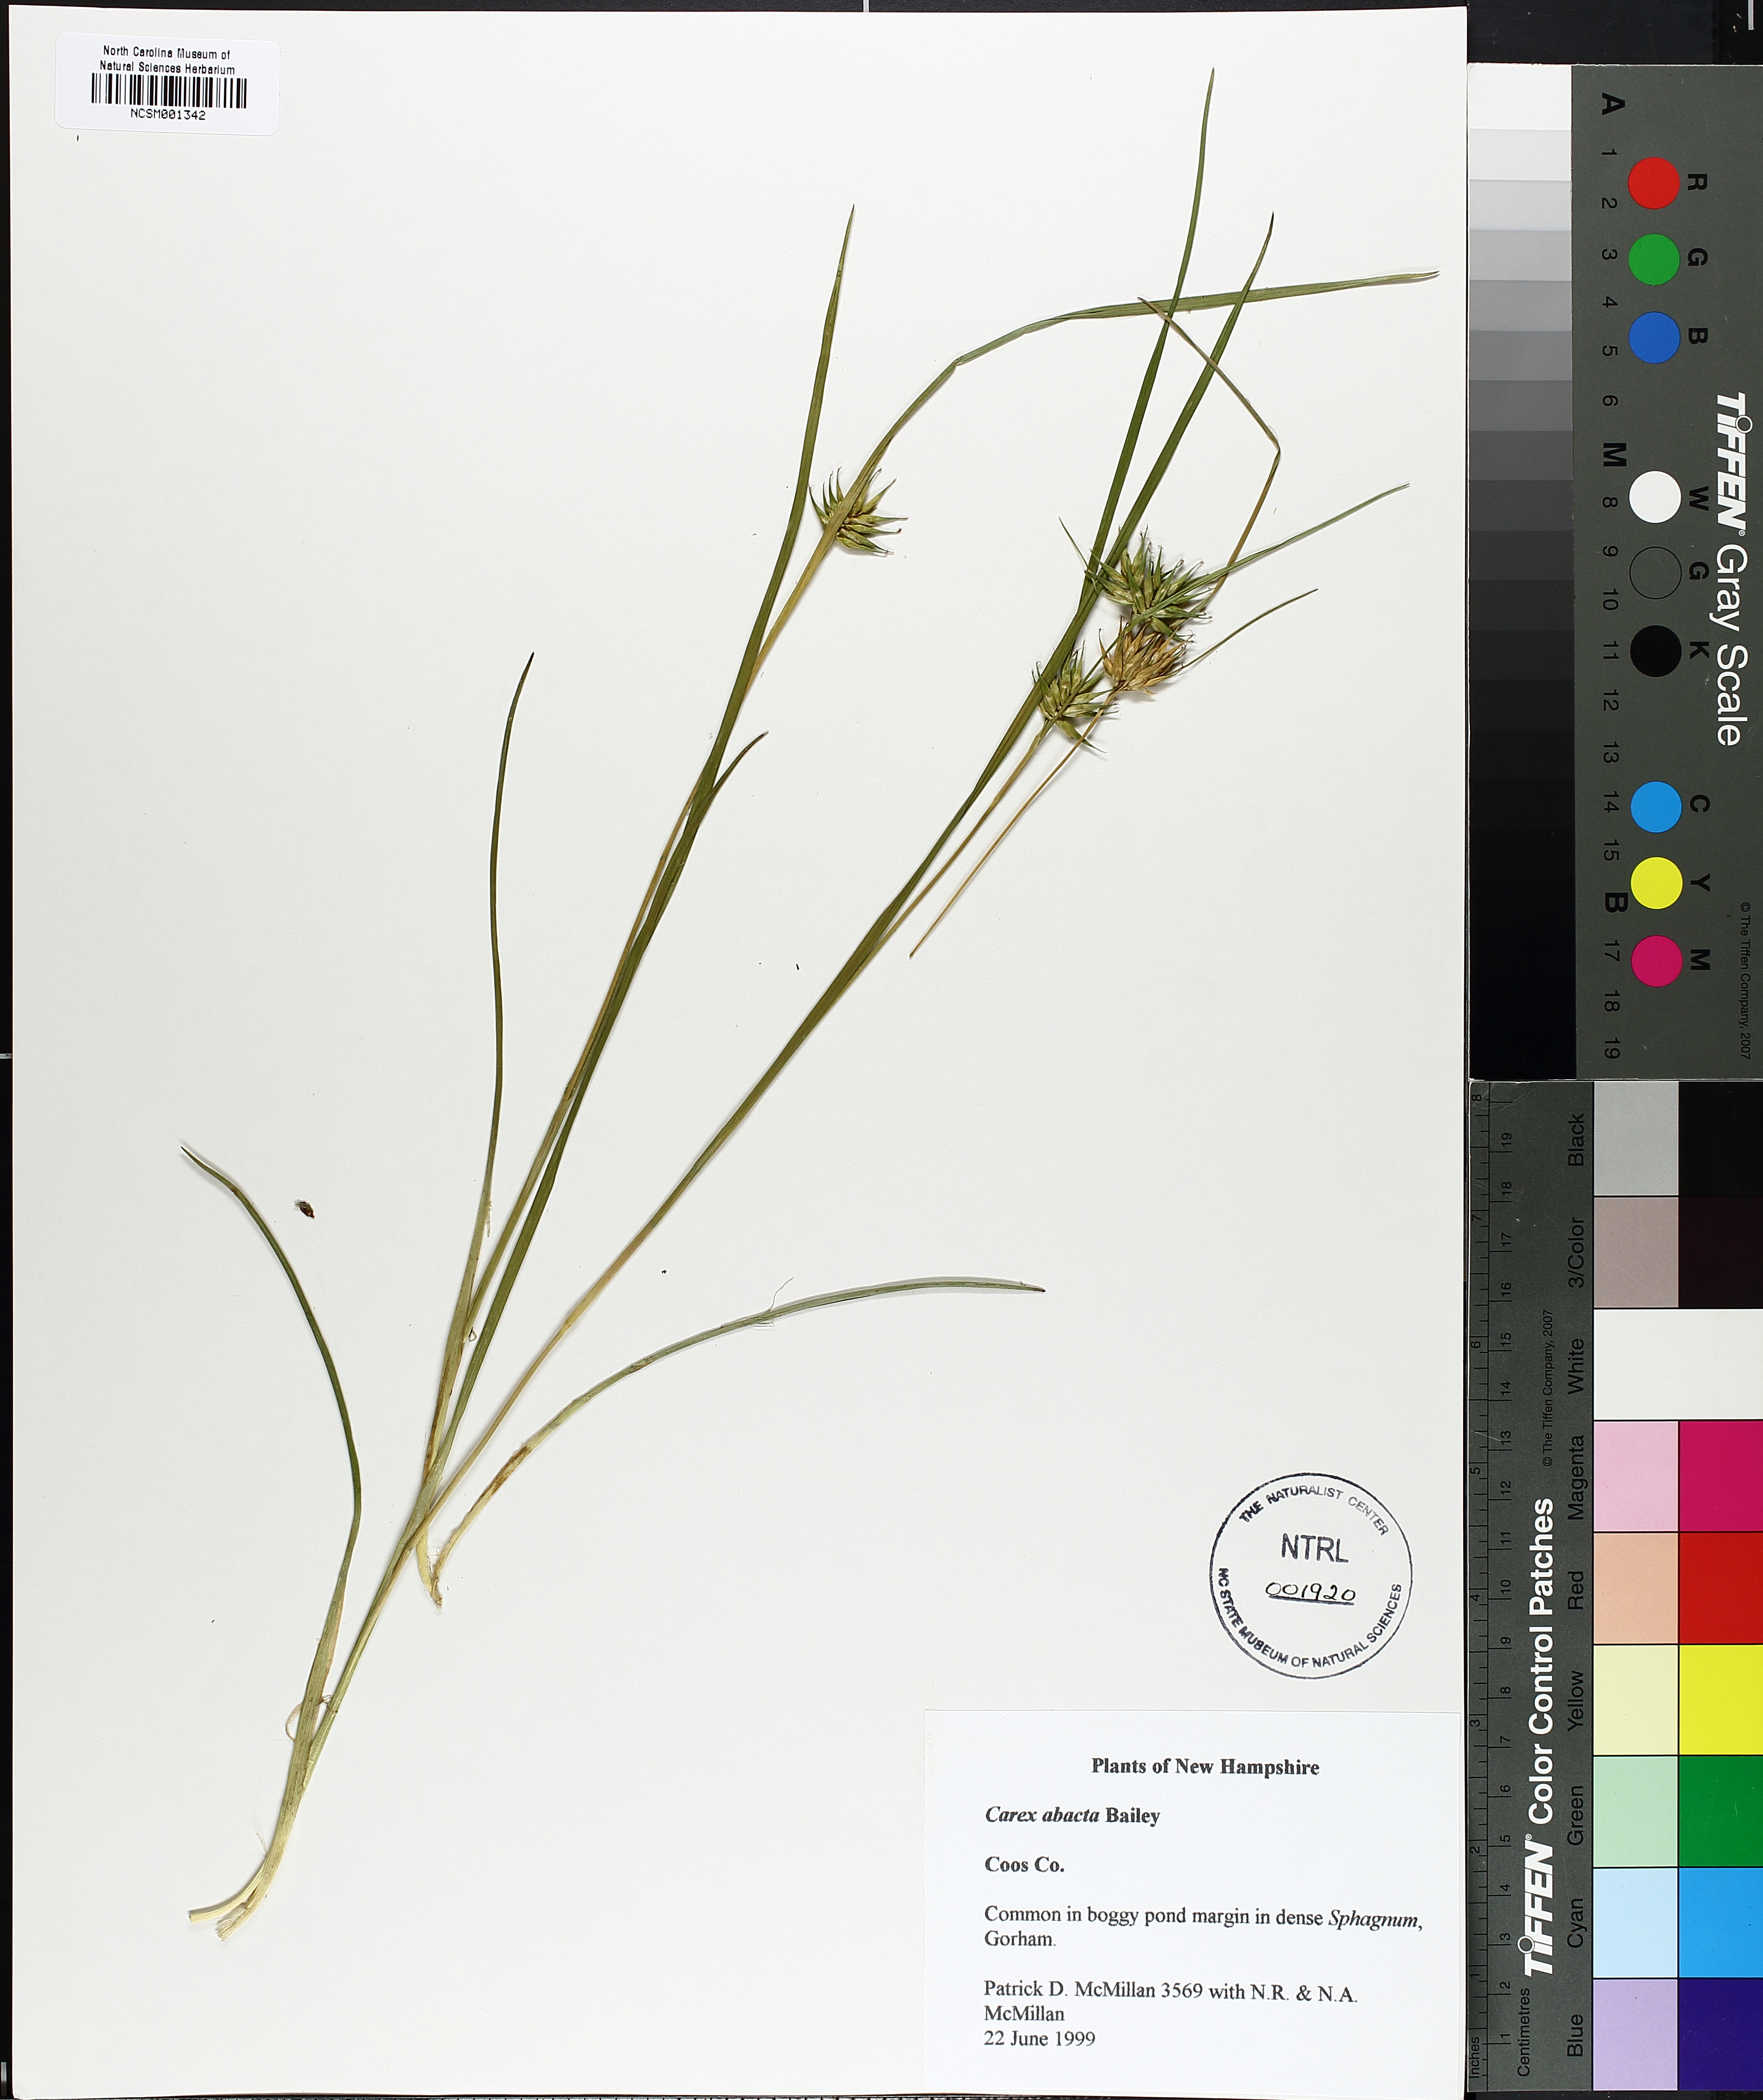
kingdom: Plantae
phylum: Tracheophyta
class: Liliopsida
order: Poales
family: Cyperaceae
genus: Carex
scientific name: Carex michauxiana
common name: Michaux's sedge
